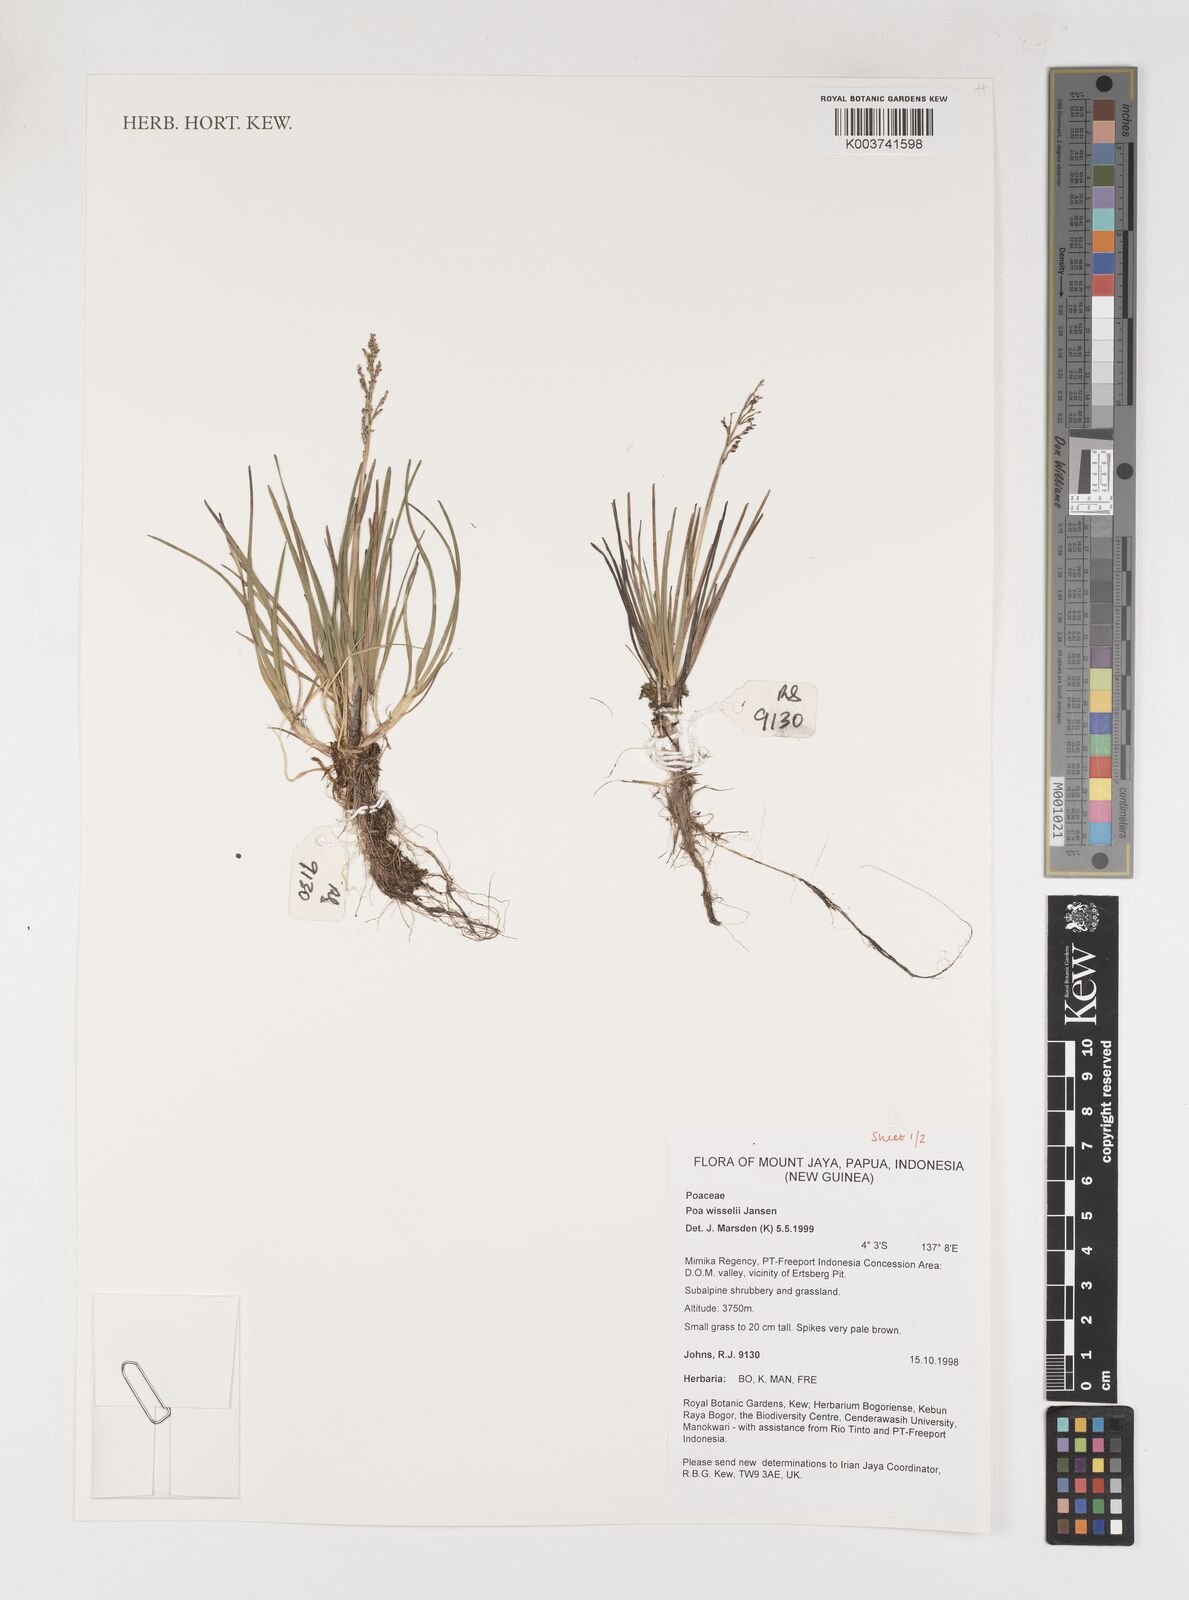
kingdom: Plantae
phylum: Tracheophyta
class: Liliopsida
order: Poales
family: Poaceae
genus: Poa
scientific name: Poa wisselii
